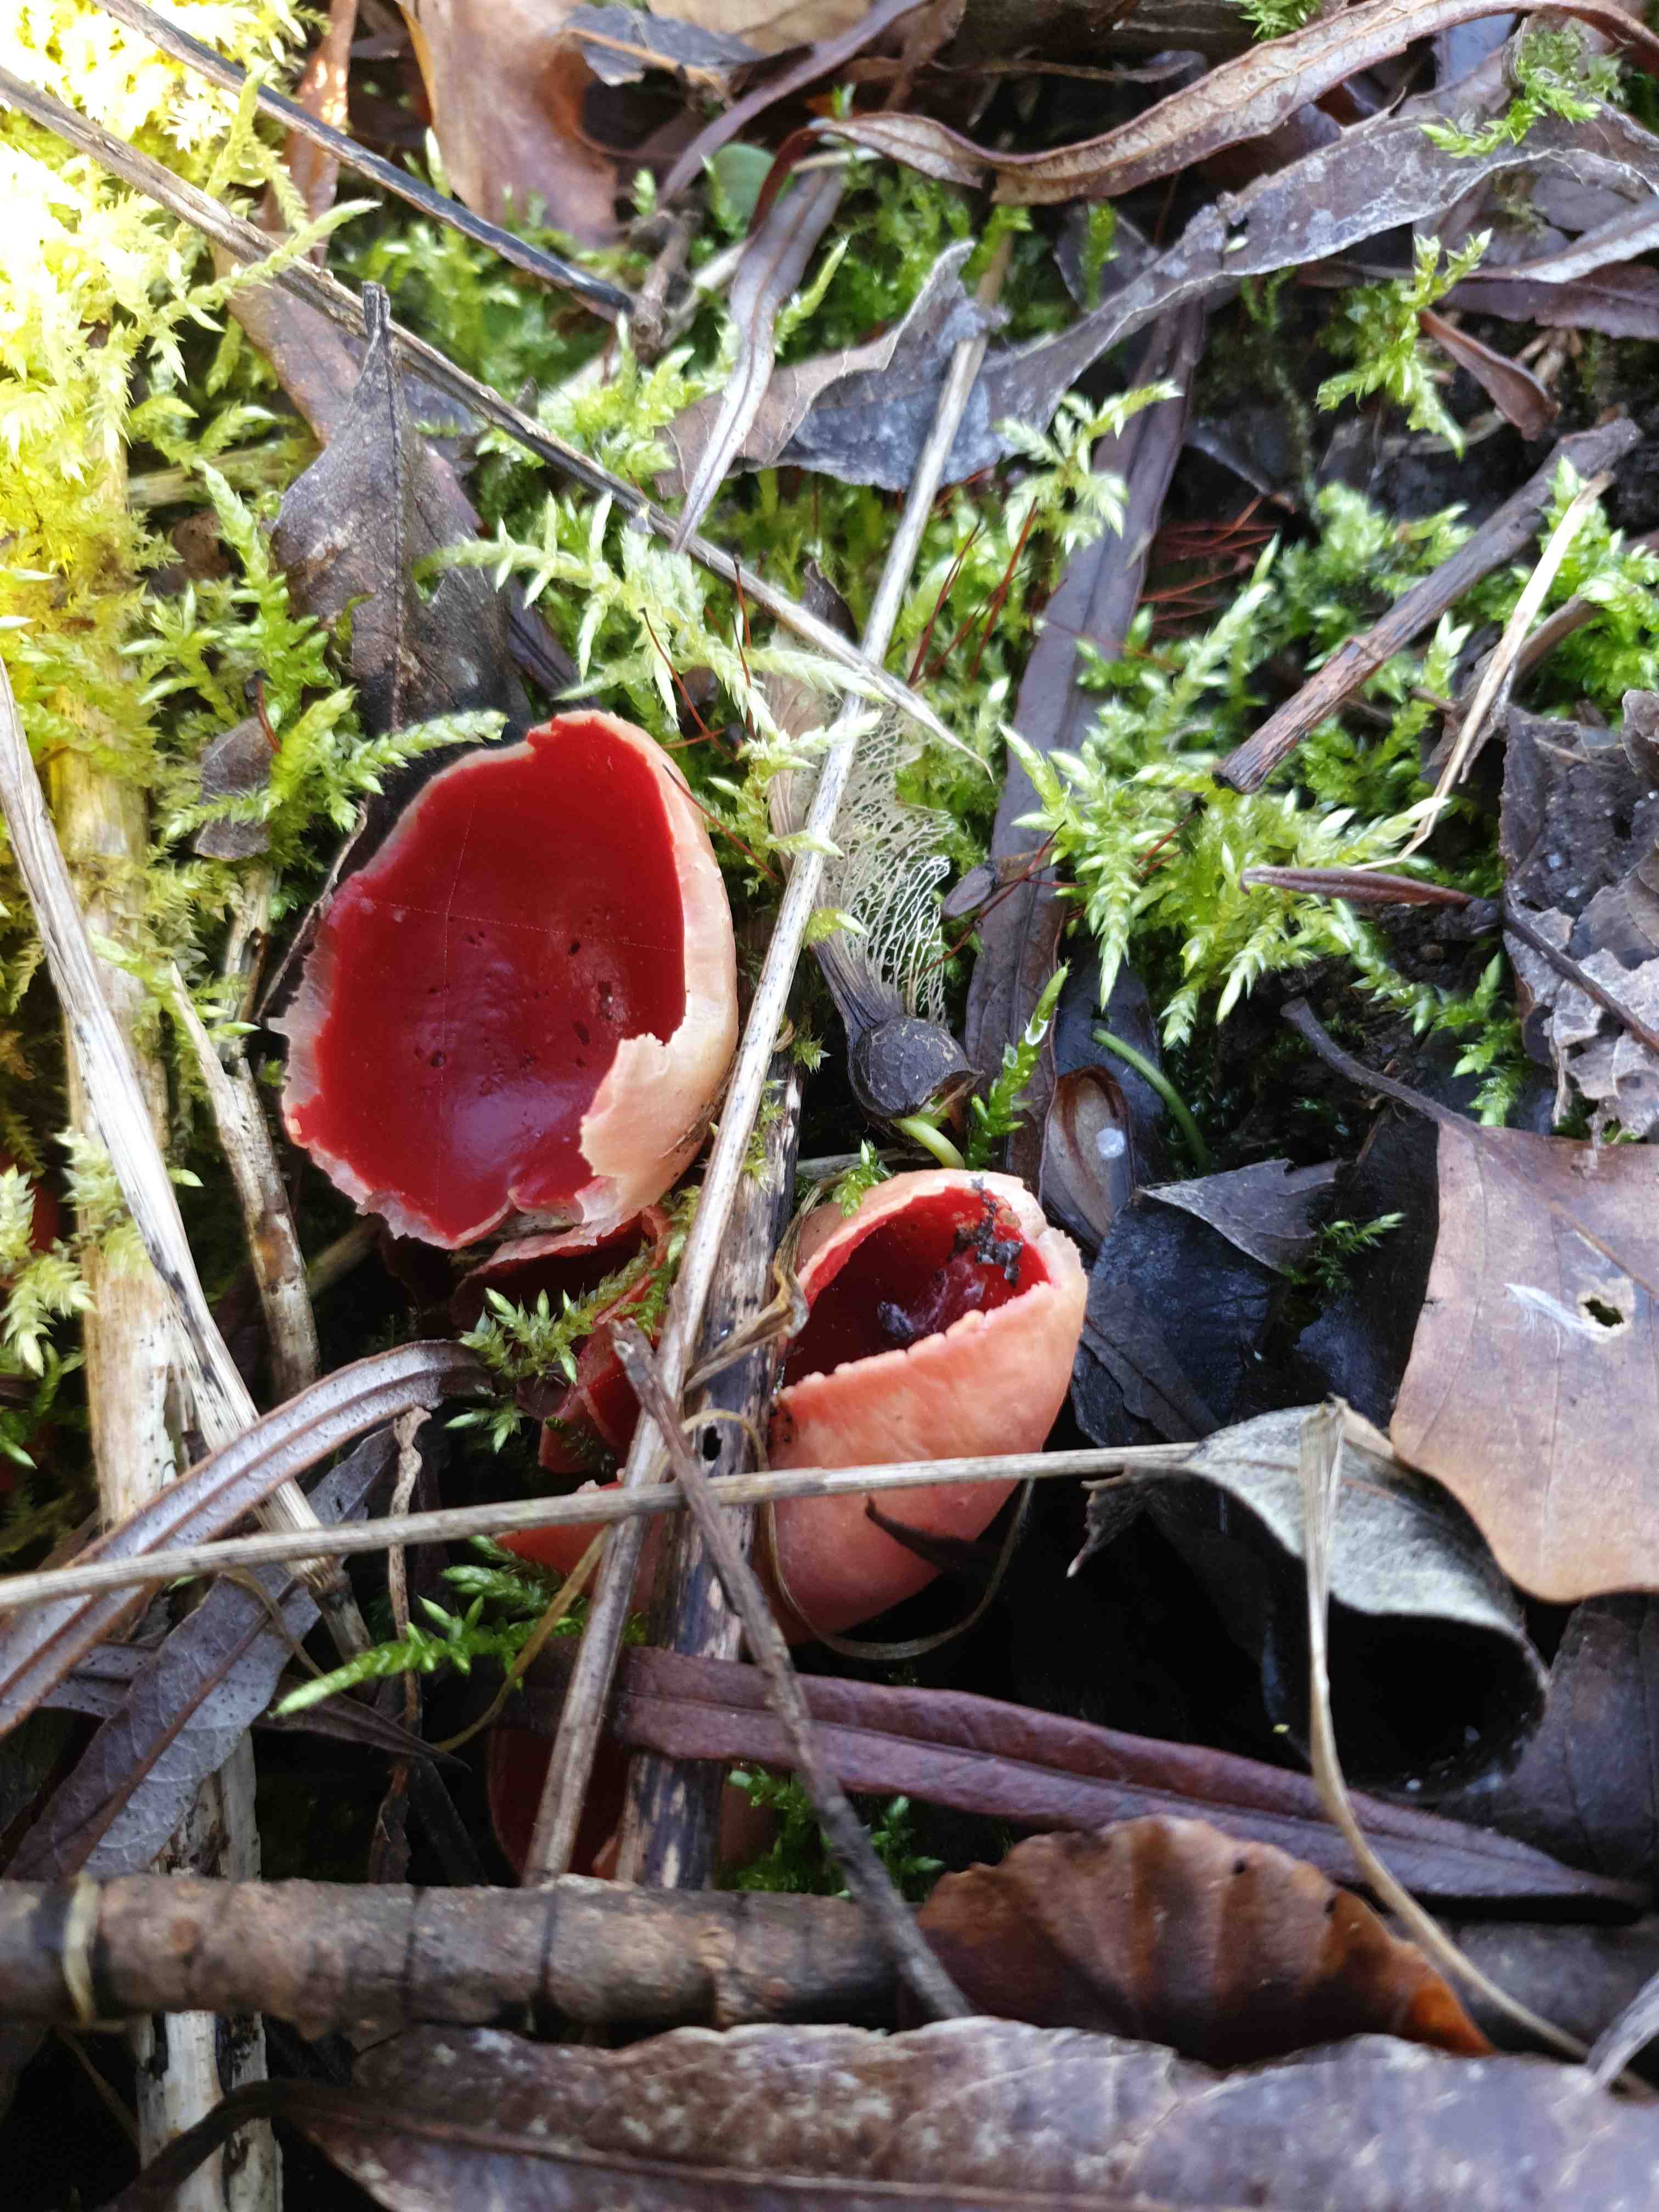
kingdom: Fungi
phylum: Ascomycota
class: Pezizomycetes
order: Pezizales
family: Sarcoscyphaceae
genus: Sarcoscypha
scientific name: Sarcoscypha austriaca
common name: krølhåret pragtbæger
